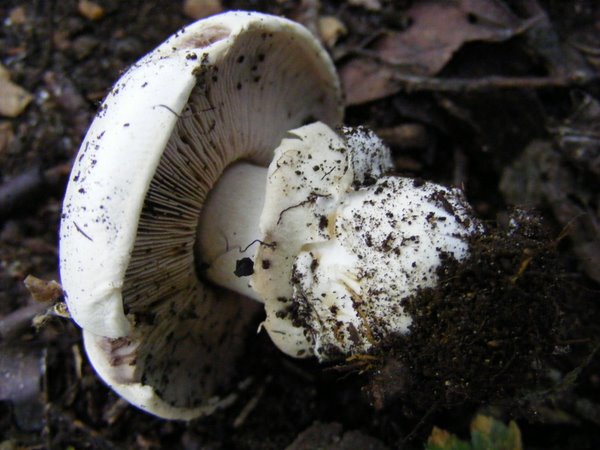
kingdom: Fungi
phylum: Basidiomycota
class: Agaricomycetes
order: Agaricales
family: Agaricaceae
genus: Agaricus
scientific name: Agaricus bitorquis
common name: vej-champignon
